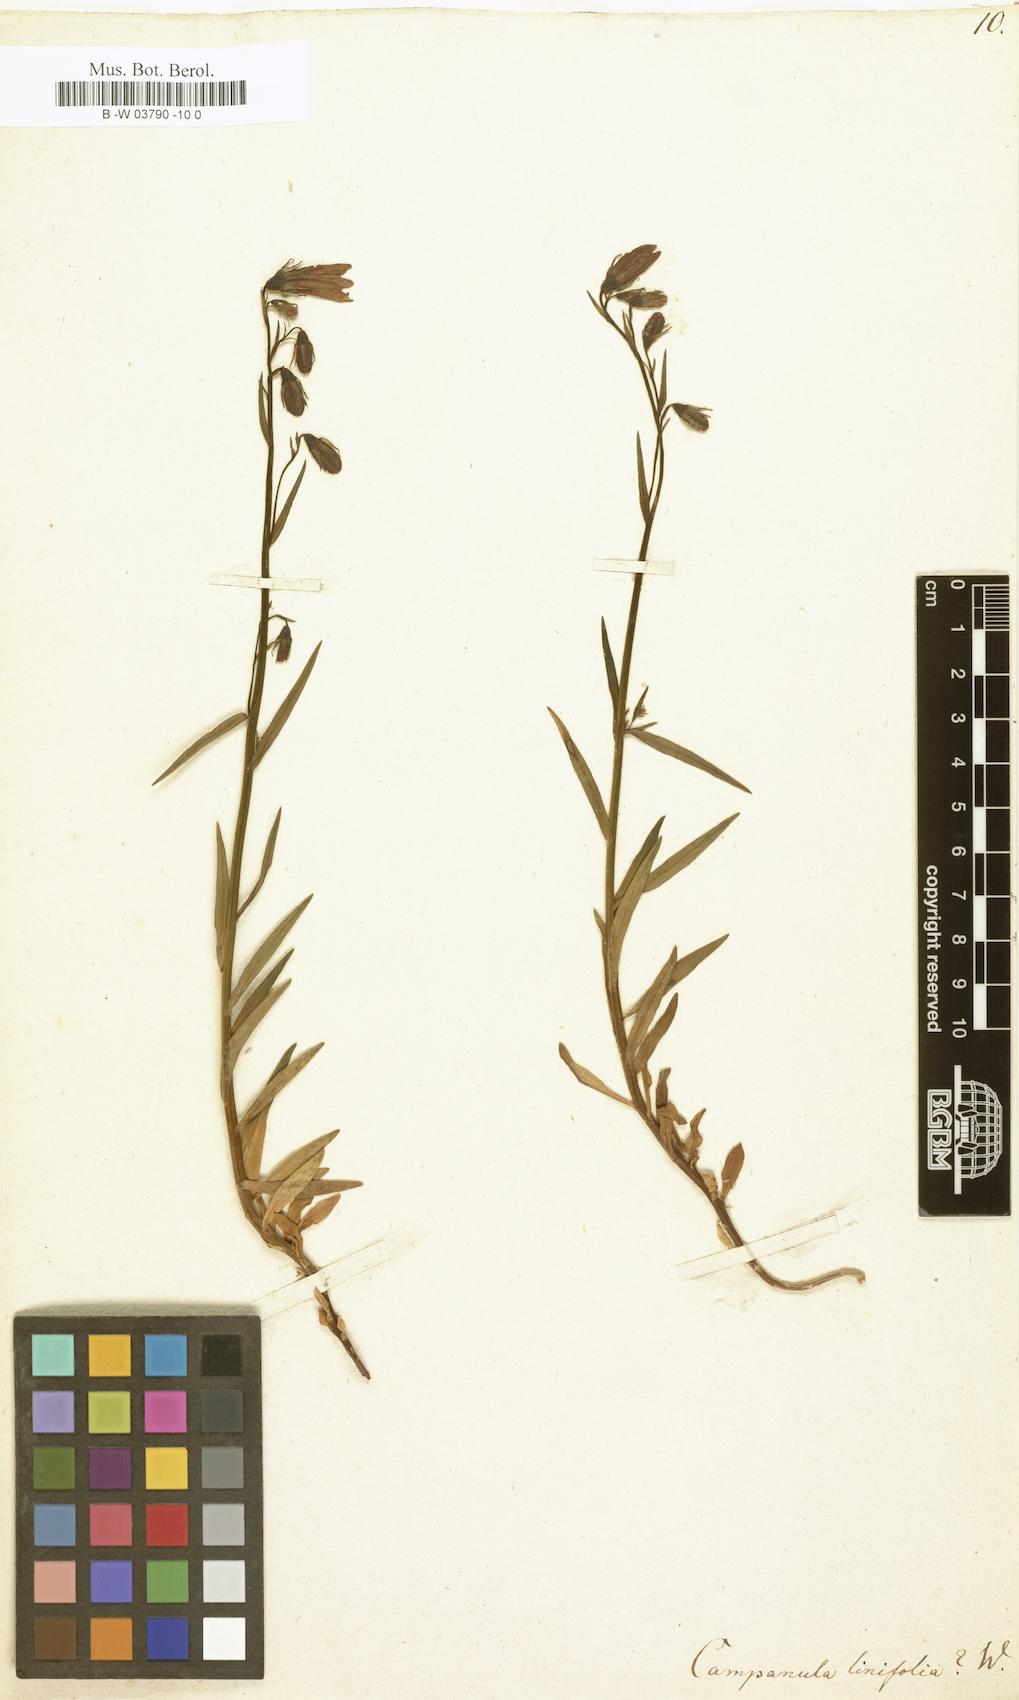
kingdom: Plantae
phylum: Tracheophyta
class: Magnoliopsida
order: Asterales
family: Campanulaceae
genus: Campanula
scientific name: Campanula
